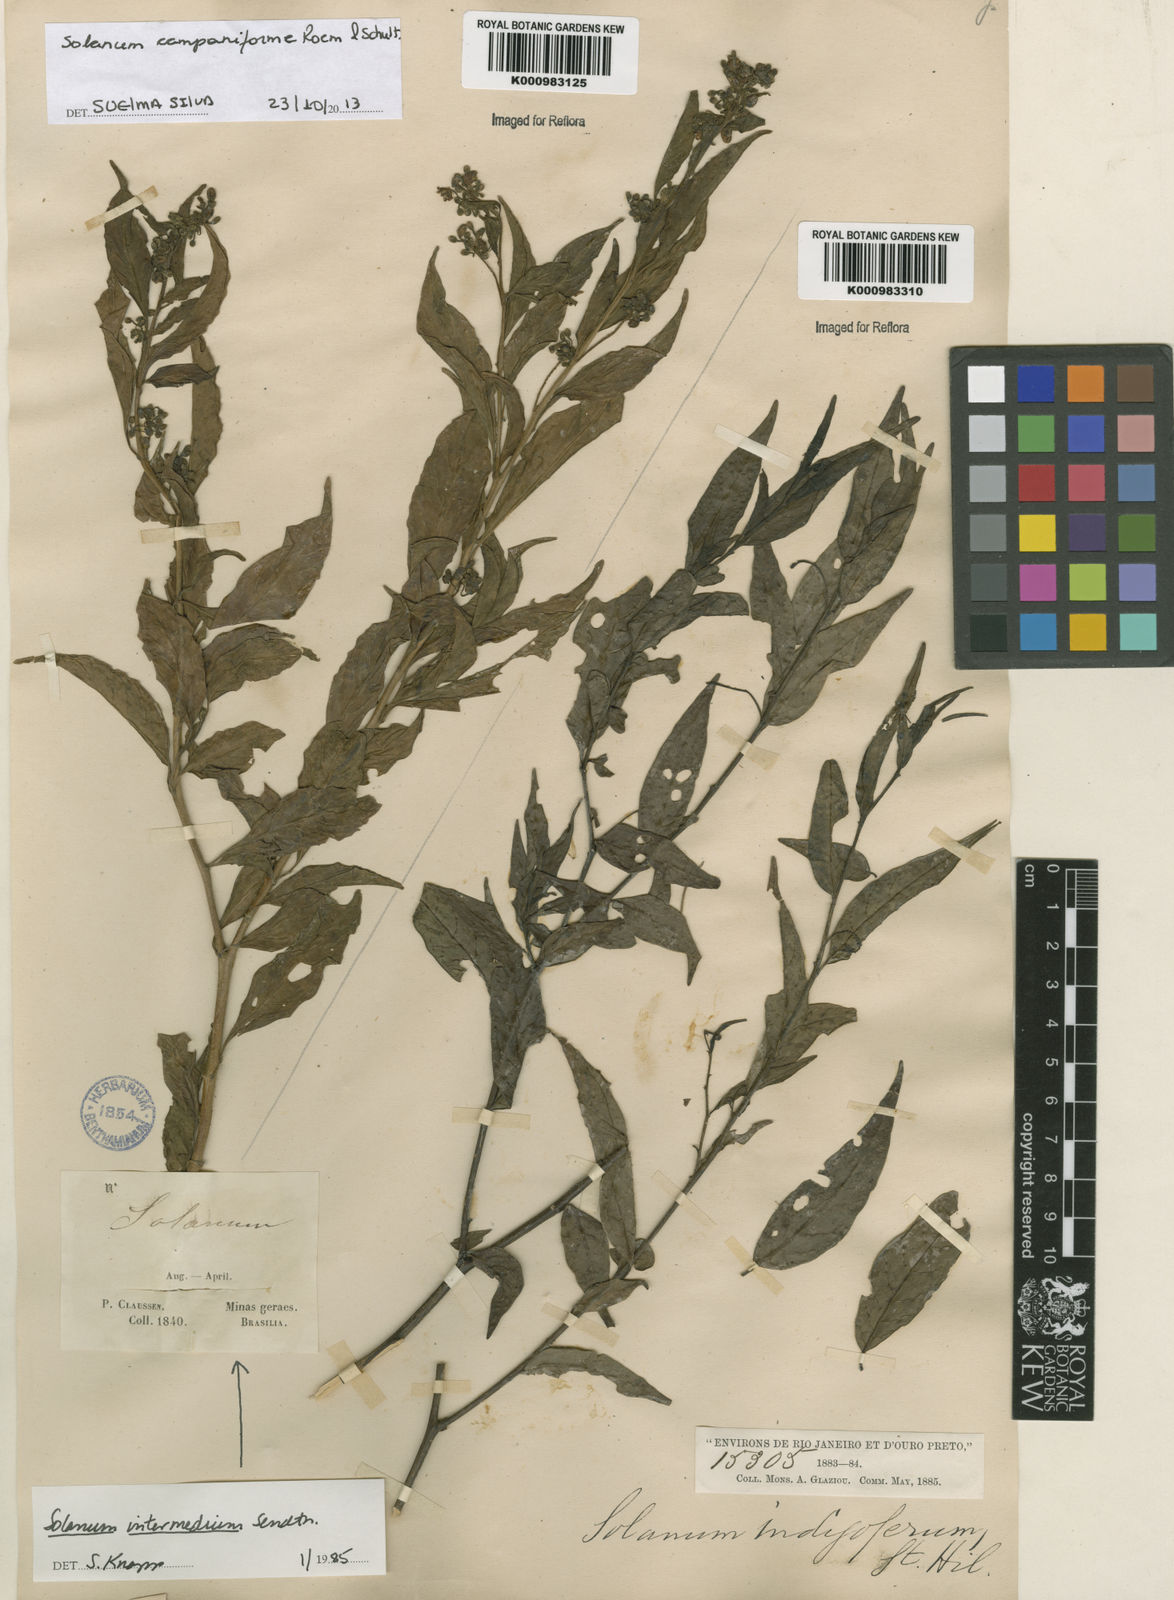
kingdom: Plantae
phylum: Tracheophyta
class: Magnoliopsida
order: Solanales
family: Solanaceae
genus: Solanum
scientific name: Solanum campaniforme
